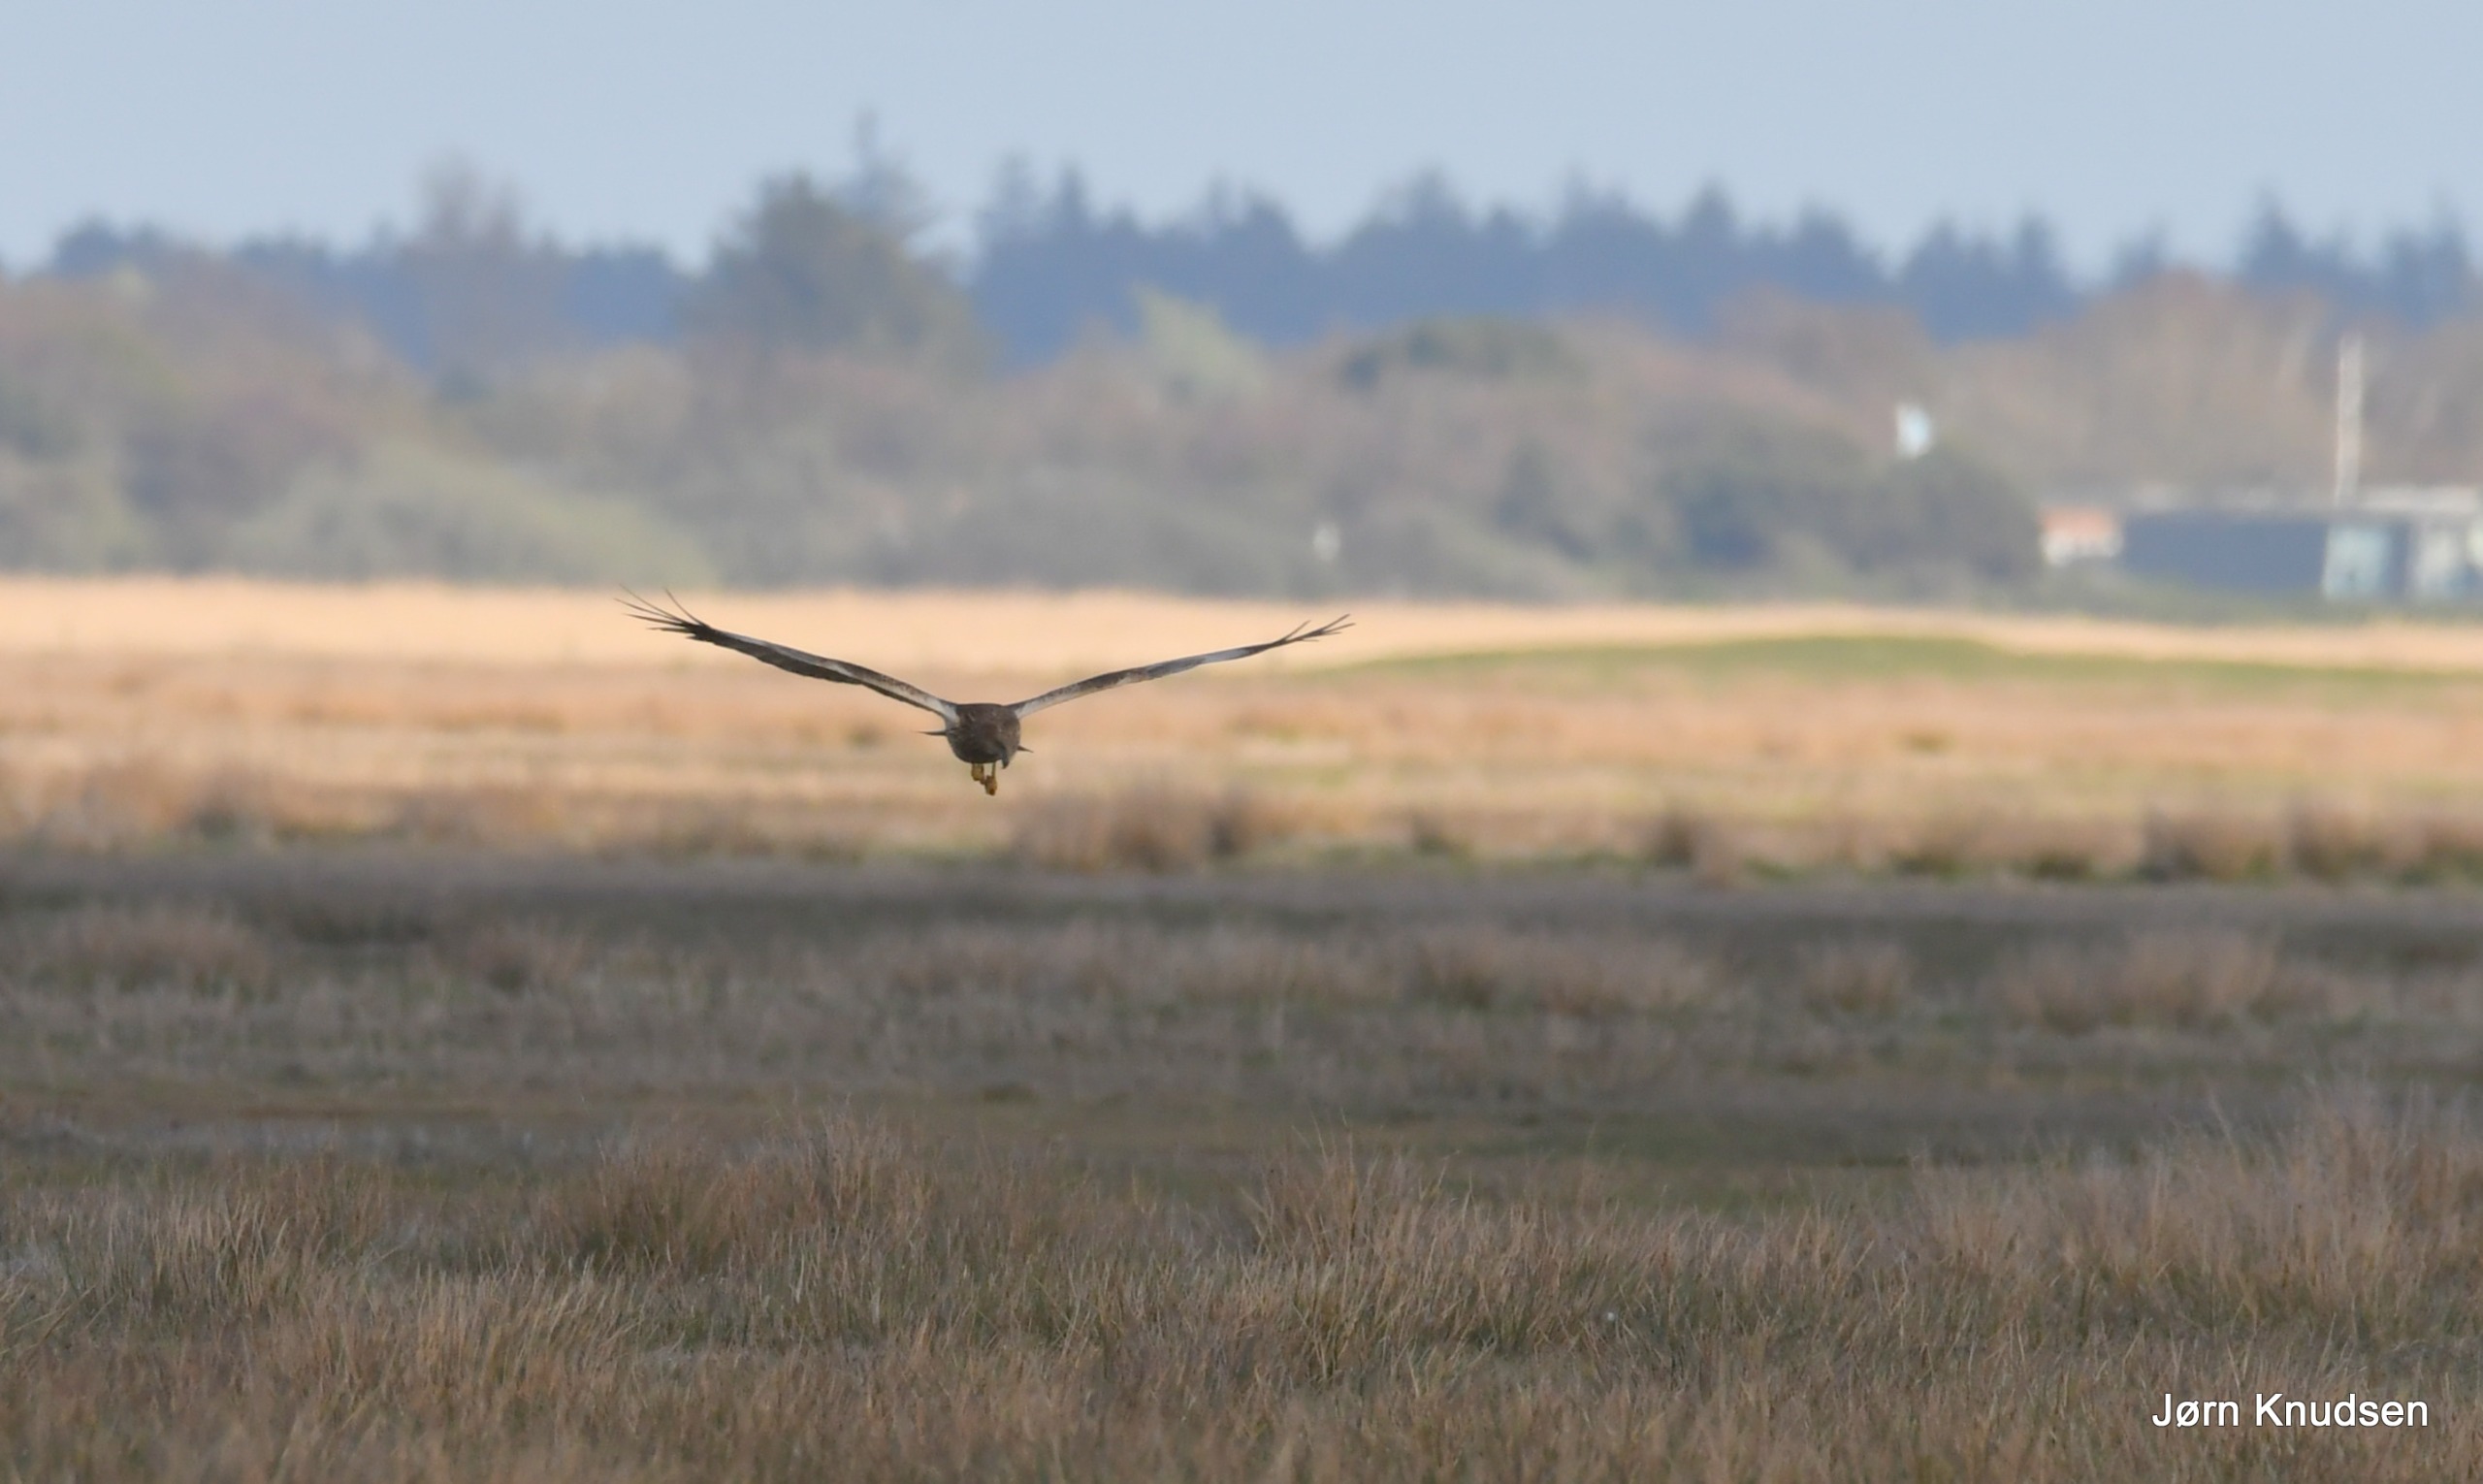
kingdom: Animalia
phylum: Chordata
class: Aves
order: Accipitriformes
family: Accipitridae
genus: Circus
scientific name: Circus aeruginosus
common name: Rørhøg
